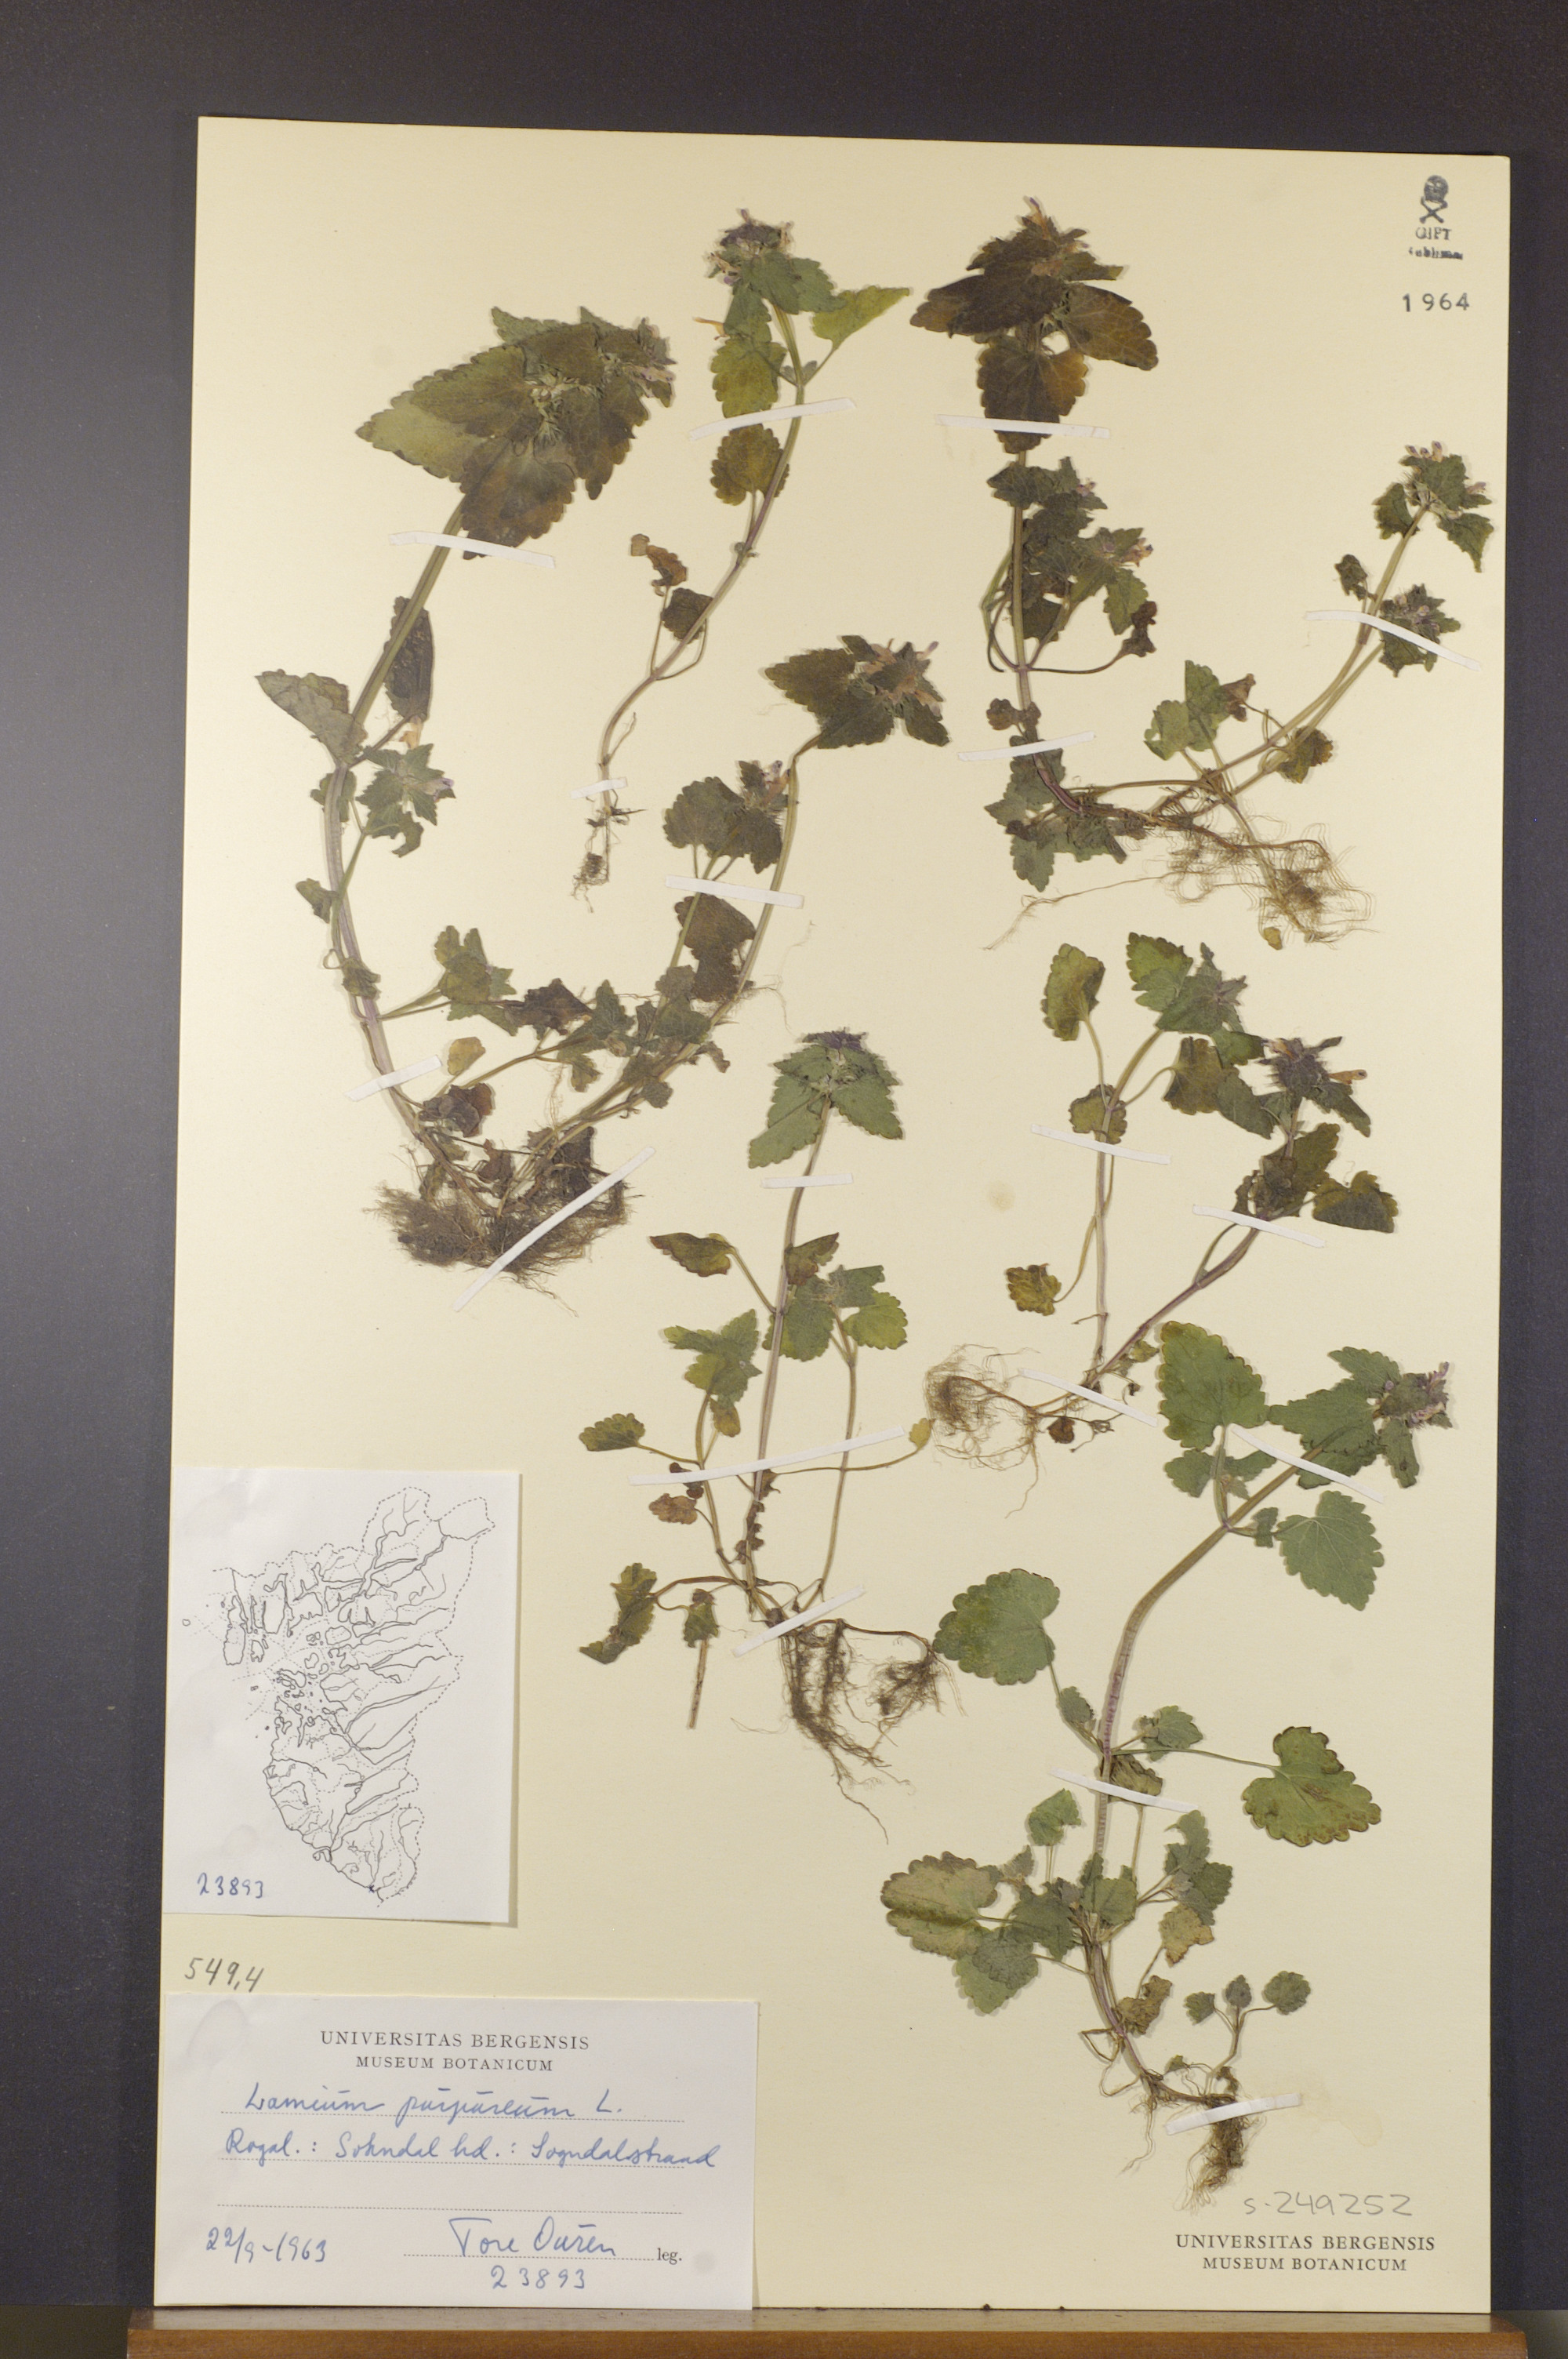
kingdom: Plantae
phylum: Tracheophyta
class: Magnoliopsida
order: Lamiales
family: Lamiaceae
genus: Lamium
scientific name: Lamium purpureum
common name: Red dead-nettle
